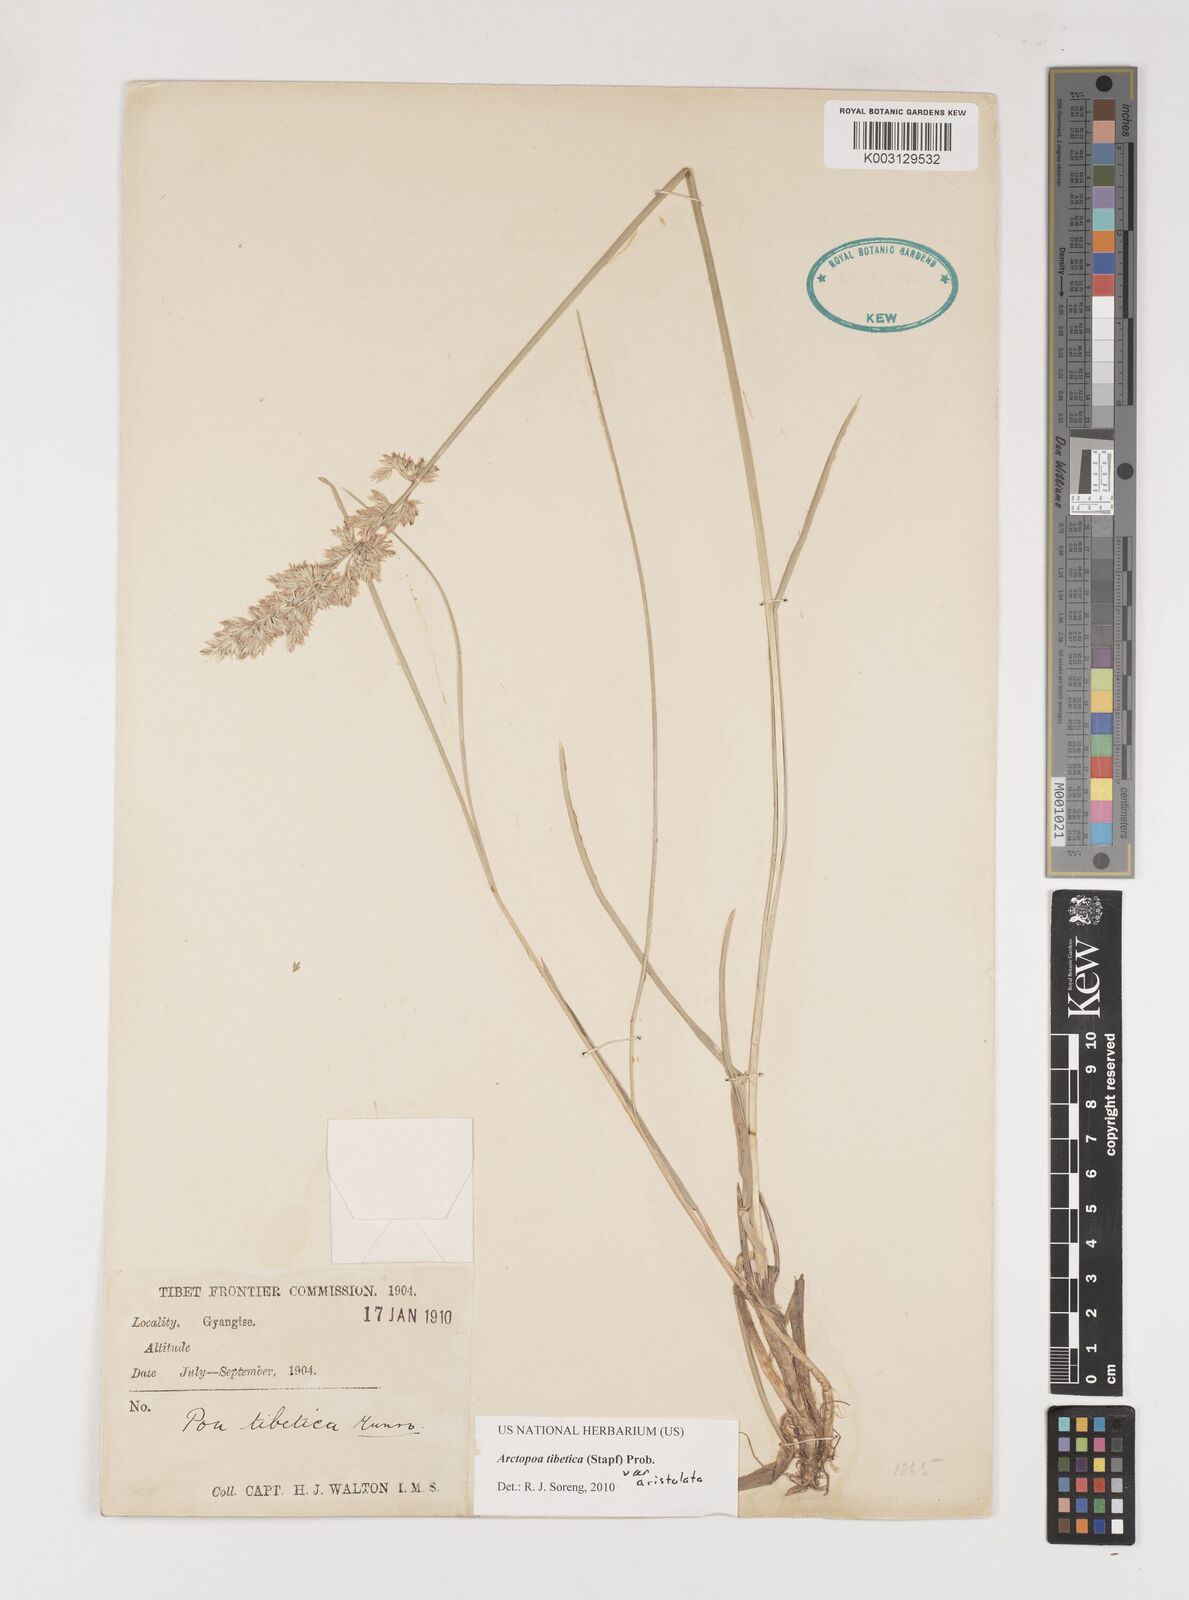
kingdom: Plantae
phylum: Tracheophyta
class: Liliopsida
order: Poales
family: Poaceae
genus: Arctopoa
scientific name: Arctopoa tibetica
